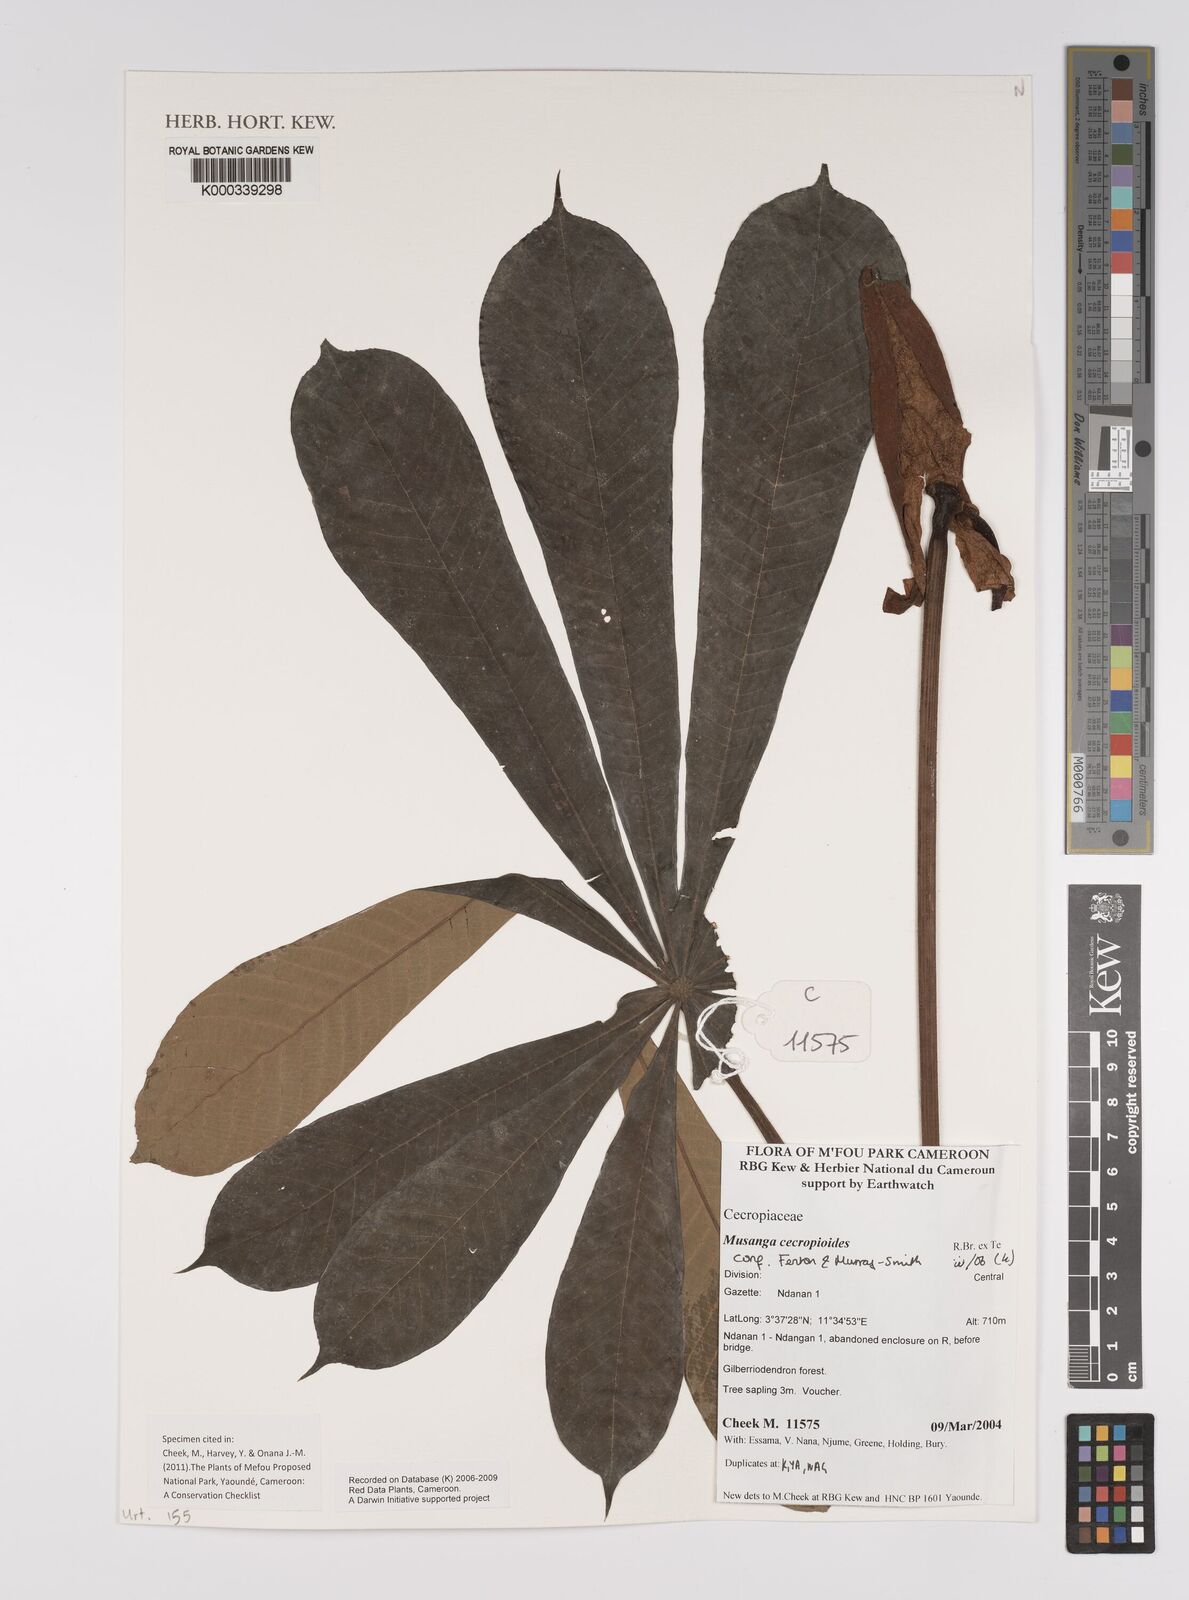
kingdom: Plantae
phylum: Tracheophyta
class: Magnoliopsida
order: Rosales
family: Urticaceae
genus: Musanga
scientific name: Musanga cecropioides
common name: African corkwood
